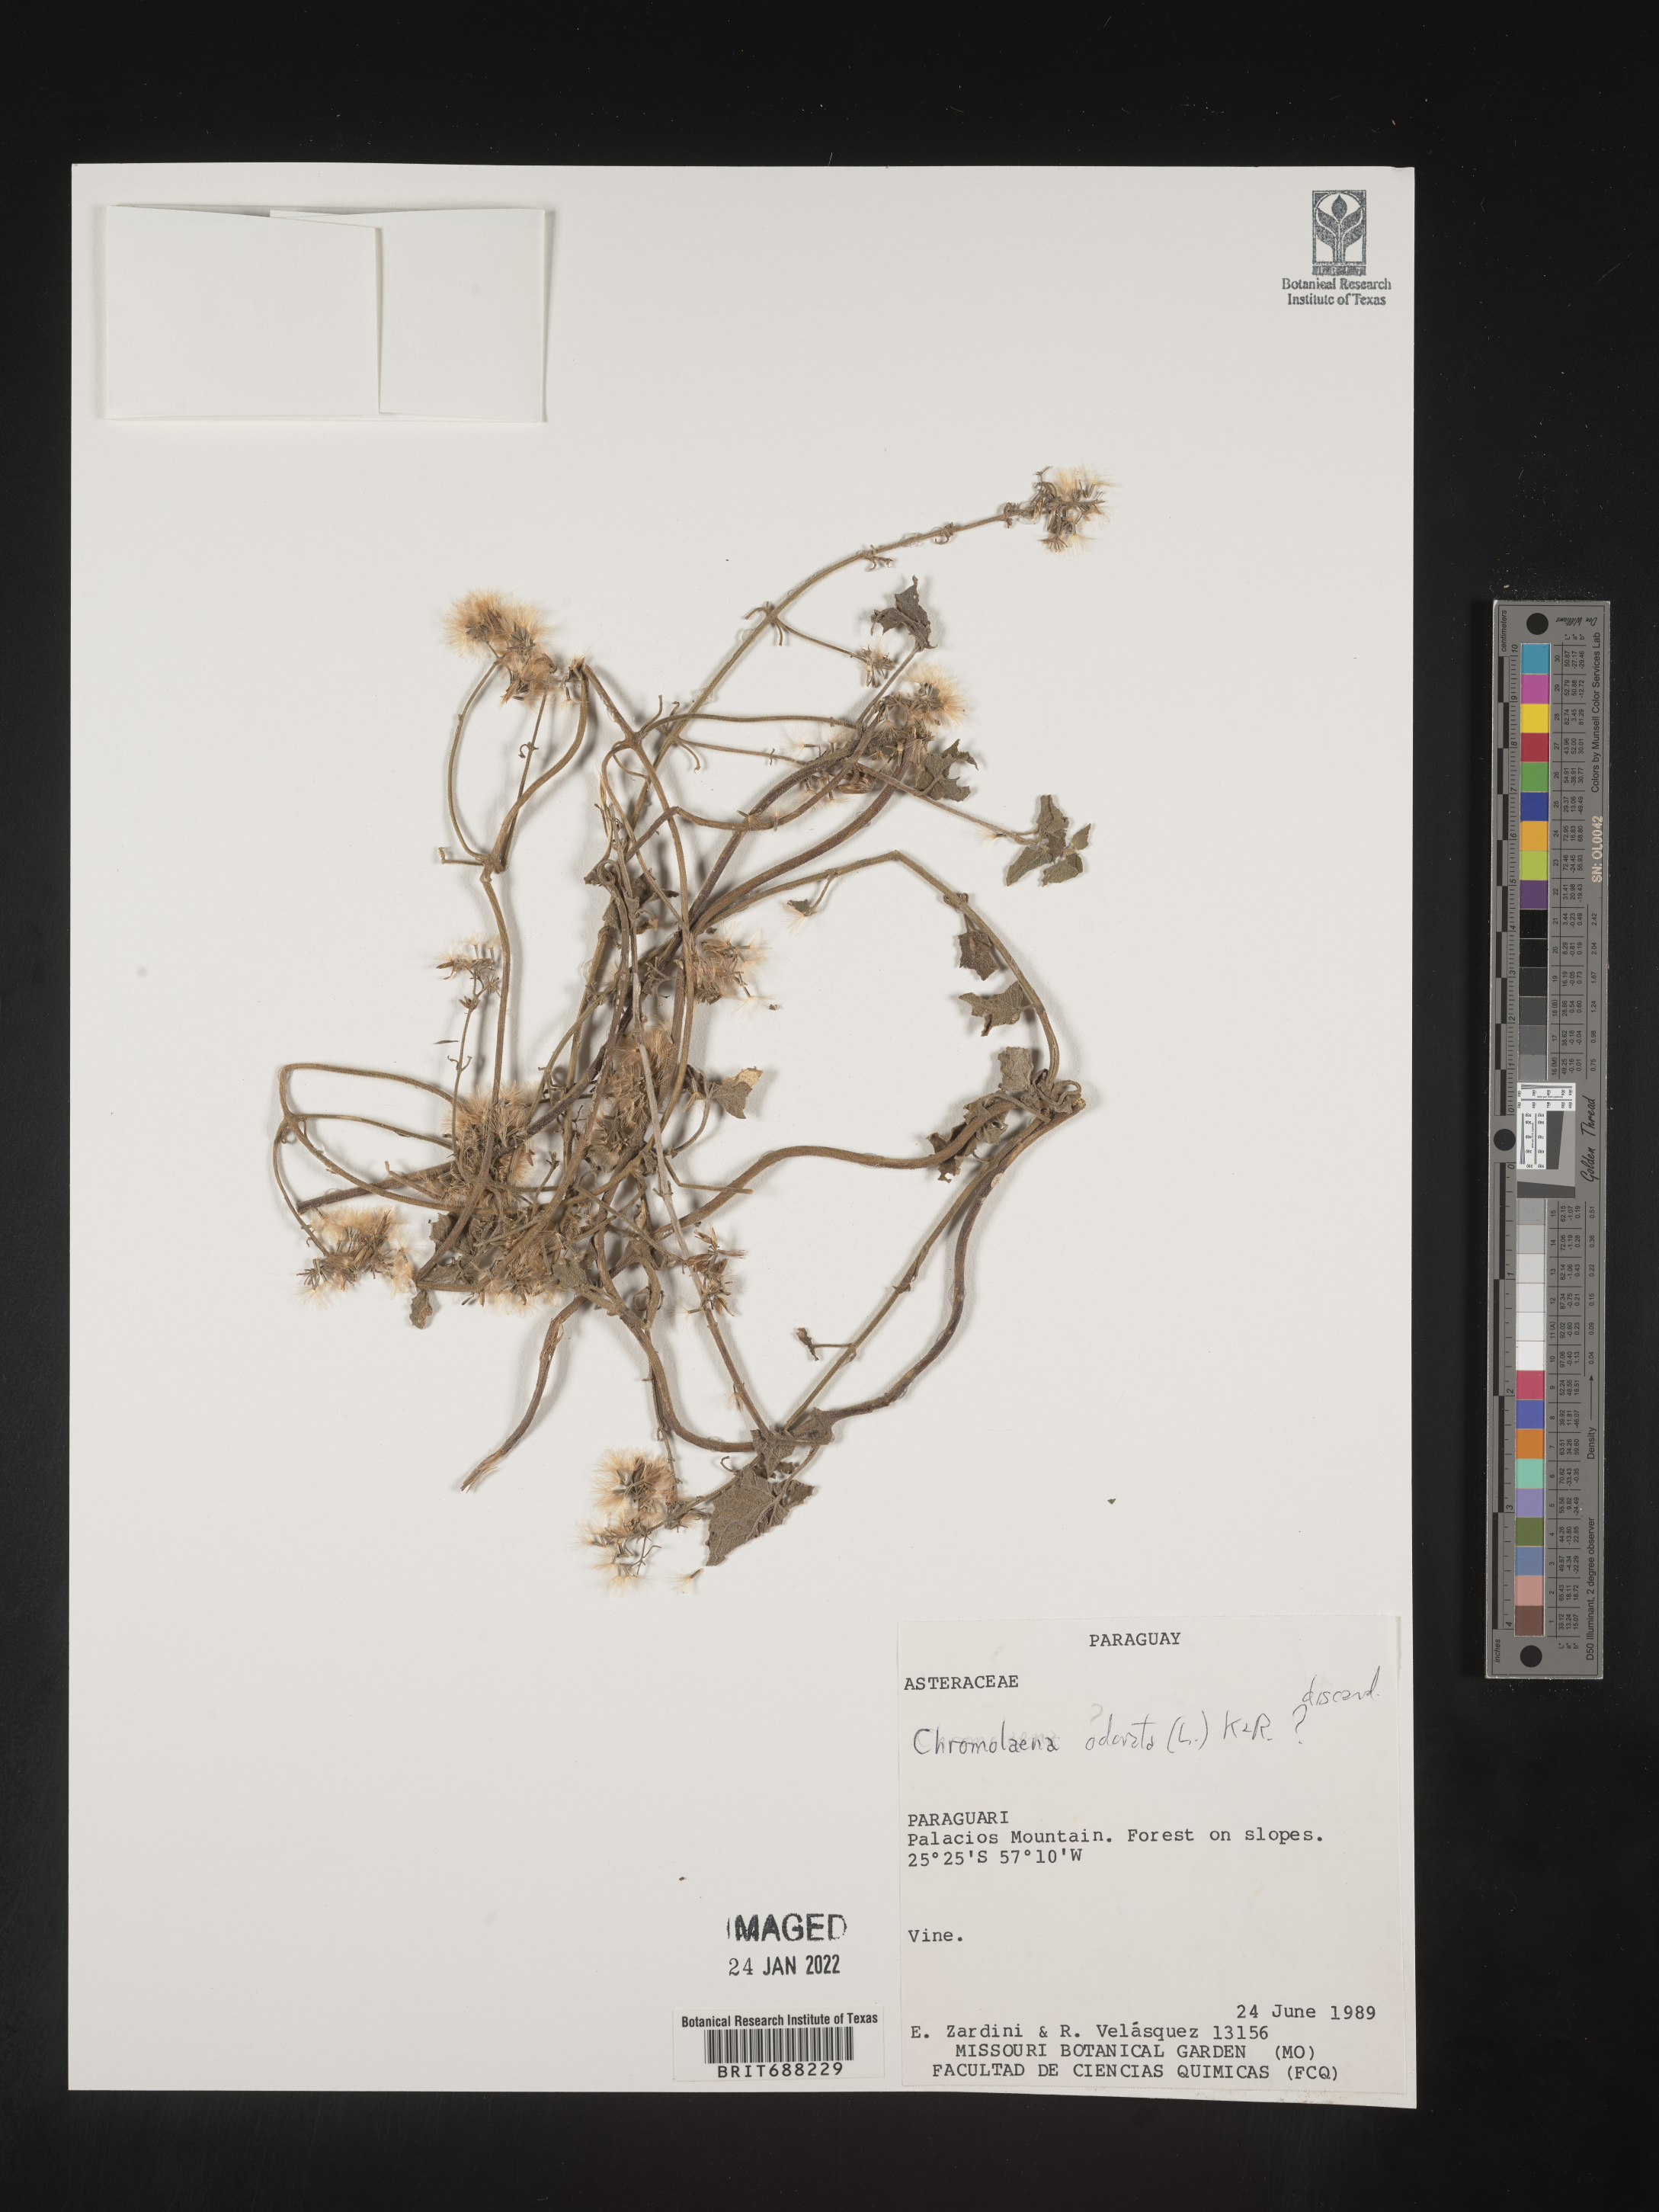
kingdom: Plantae
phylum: Tracheophyta
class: Magnoliopsida
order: Asterales
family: Asteraceae
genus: Chromolaena
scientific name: Chromolaena
